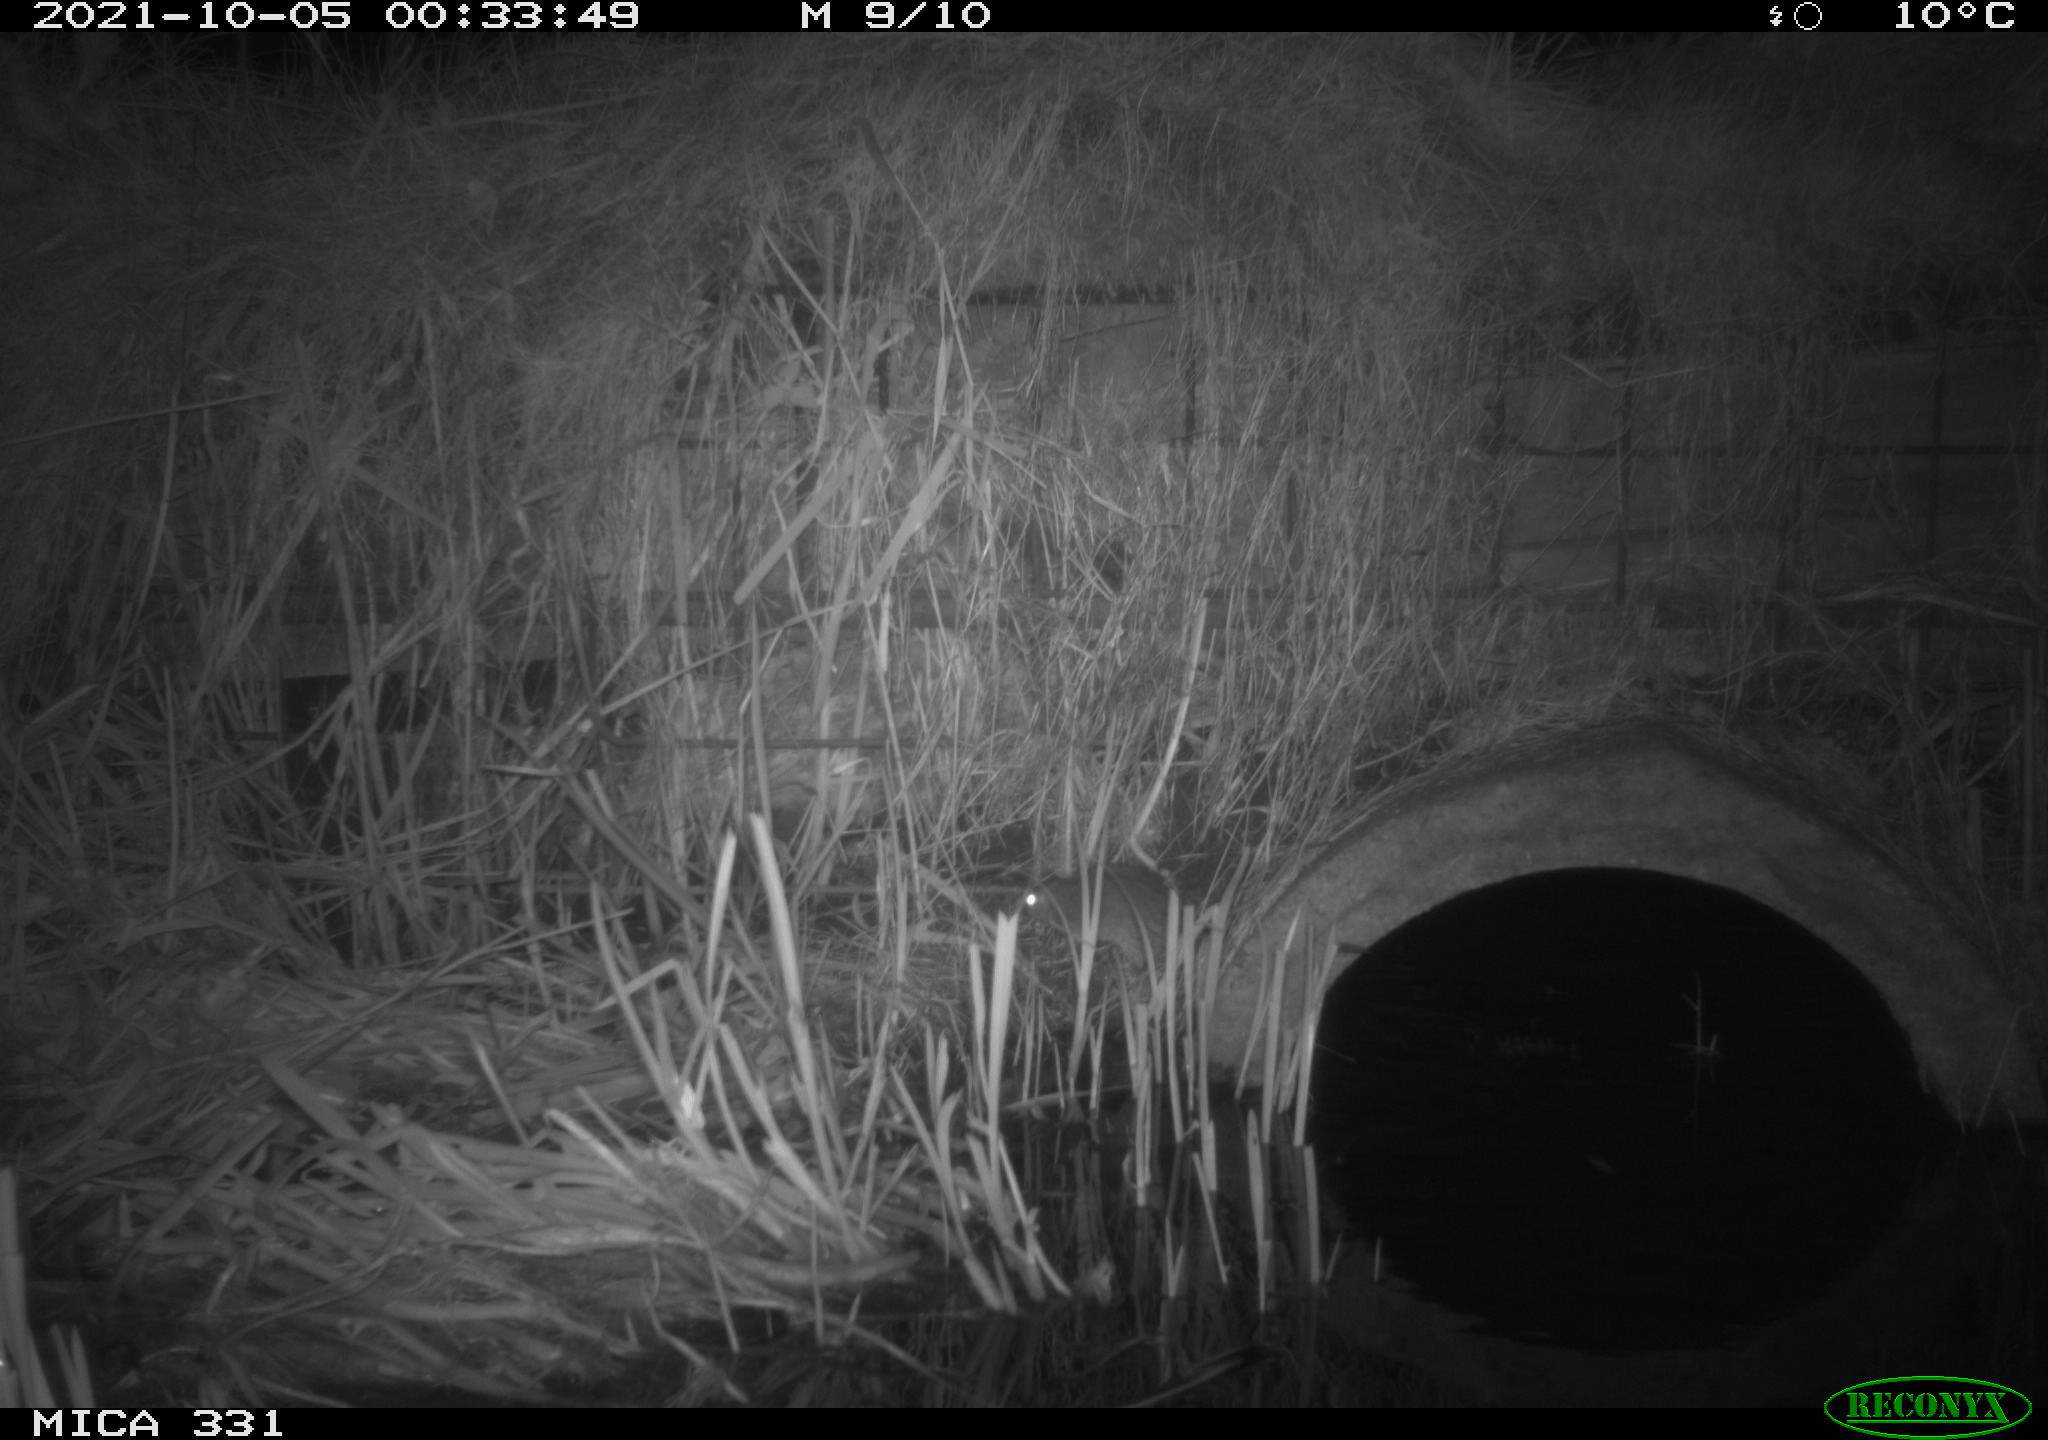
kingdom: Animalia
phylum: Chordata
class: Mammalia
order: Rodentia
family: Muridae
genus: Rattus
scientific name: Rattus norvegicus
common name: Brown rat
